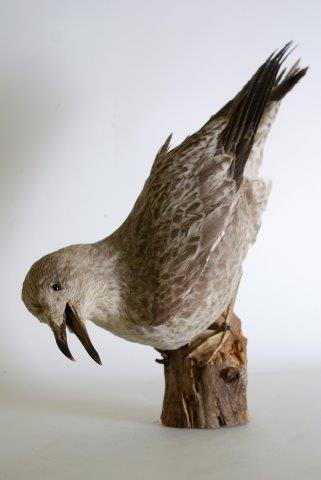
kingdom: Animalia
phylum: Chordata
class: Aves
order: Charadriiformes
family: Laridae
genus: Larus
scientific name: Larus argentatus
